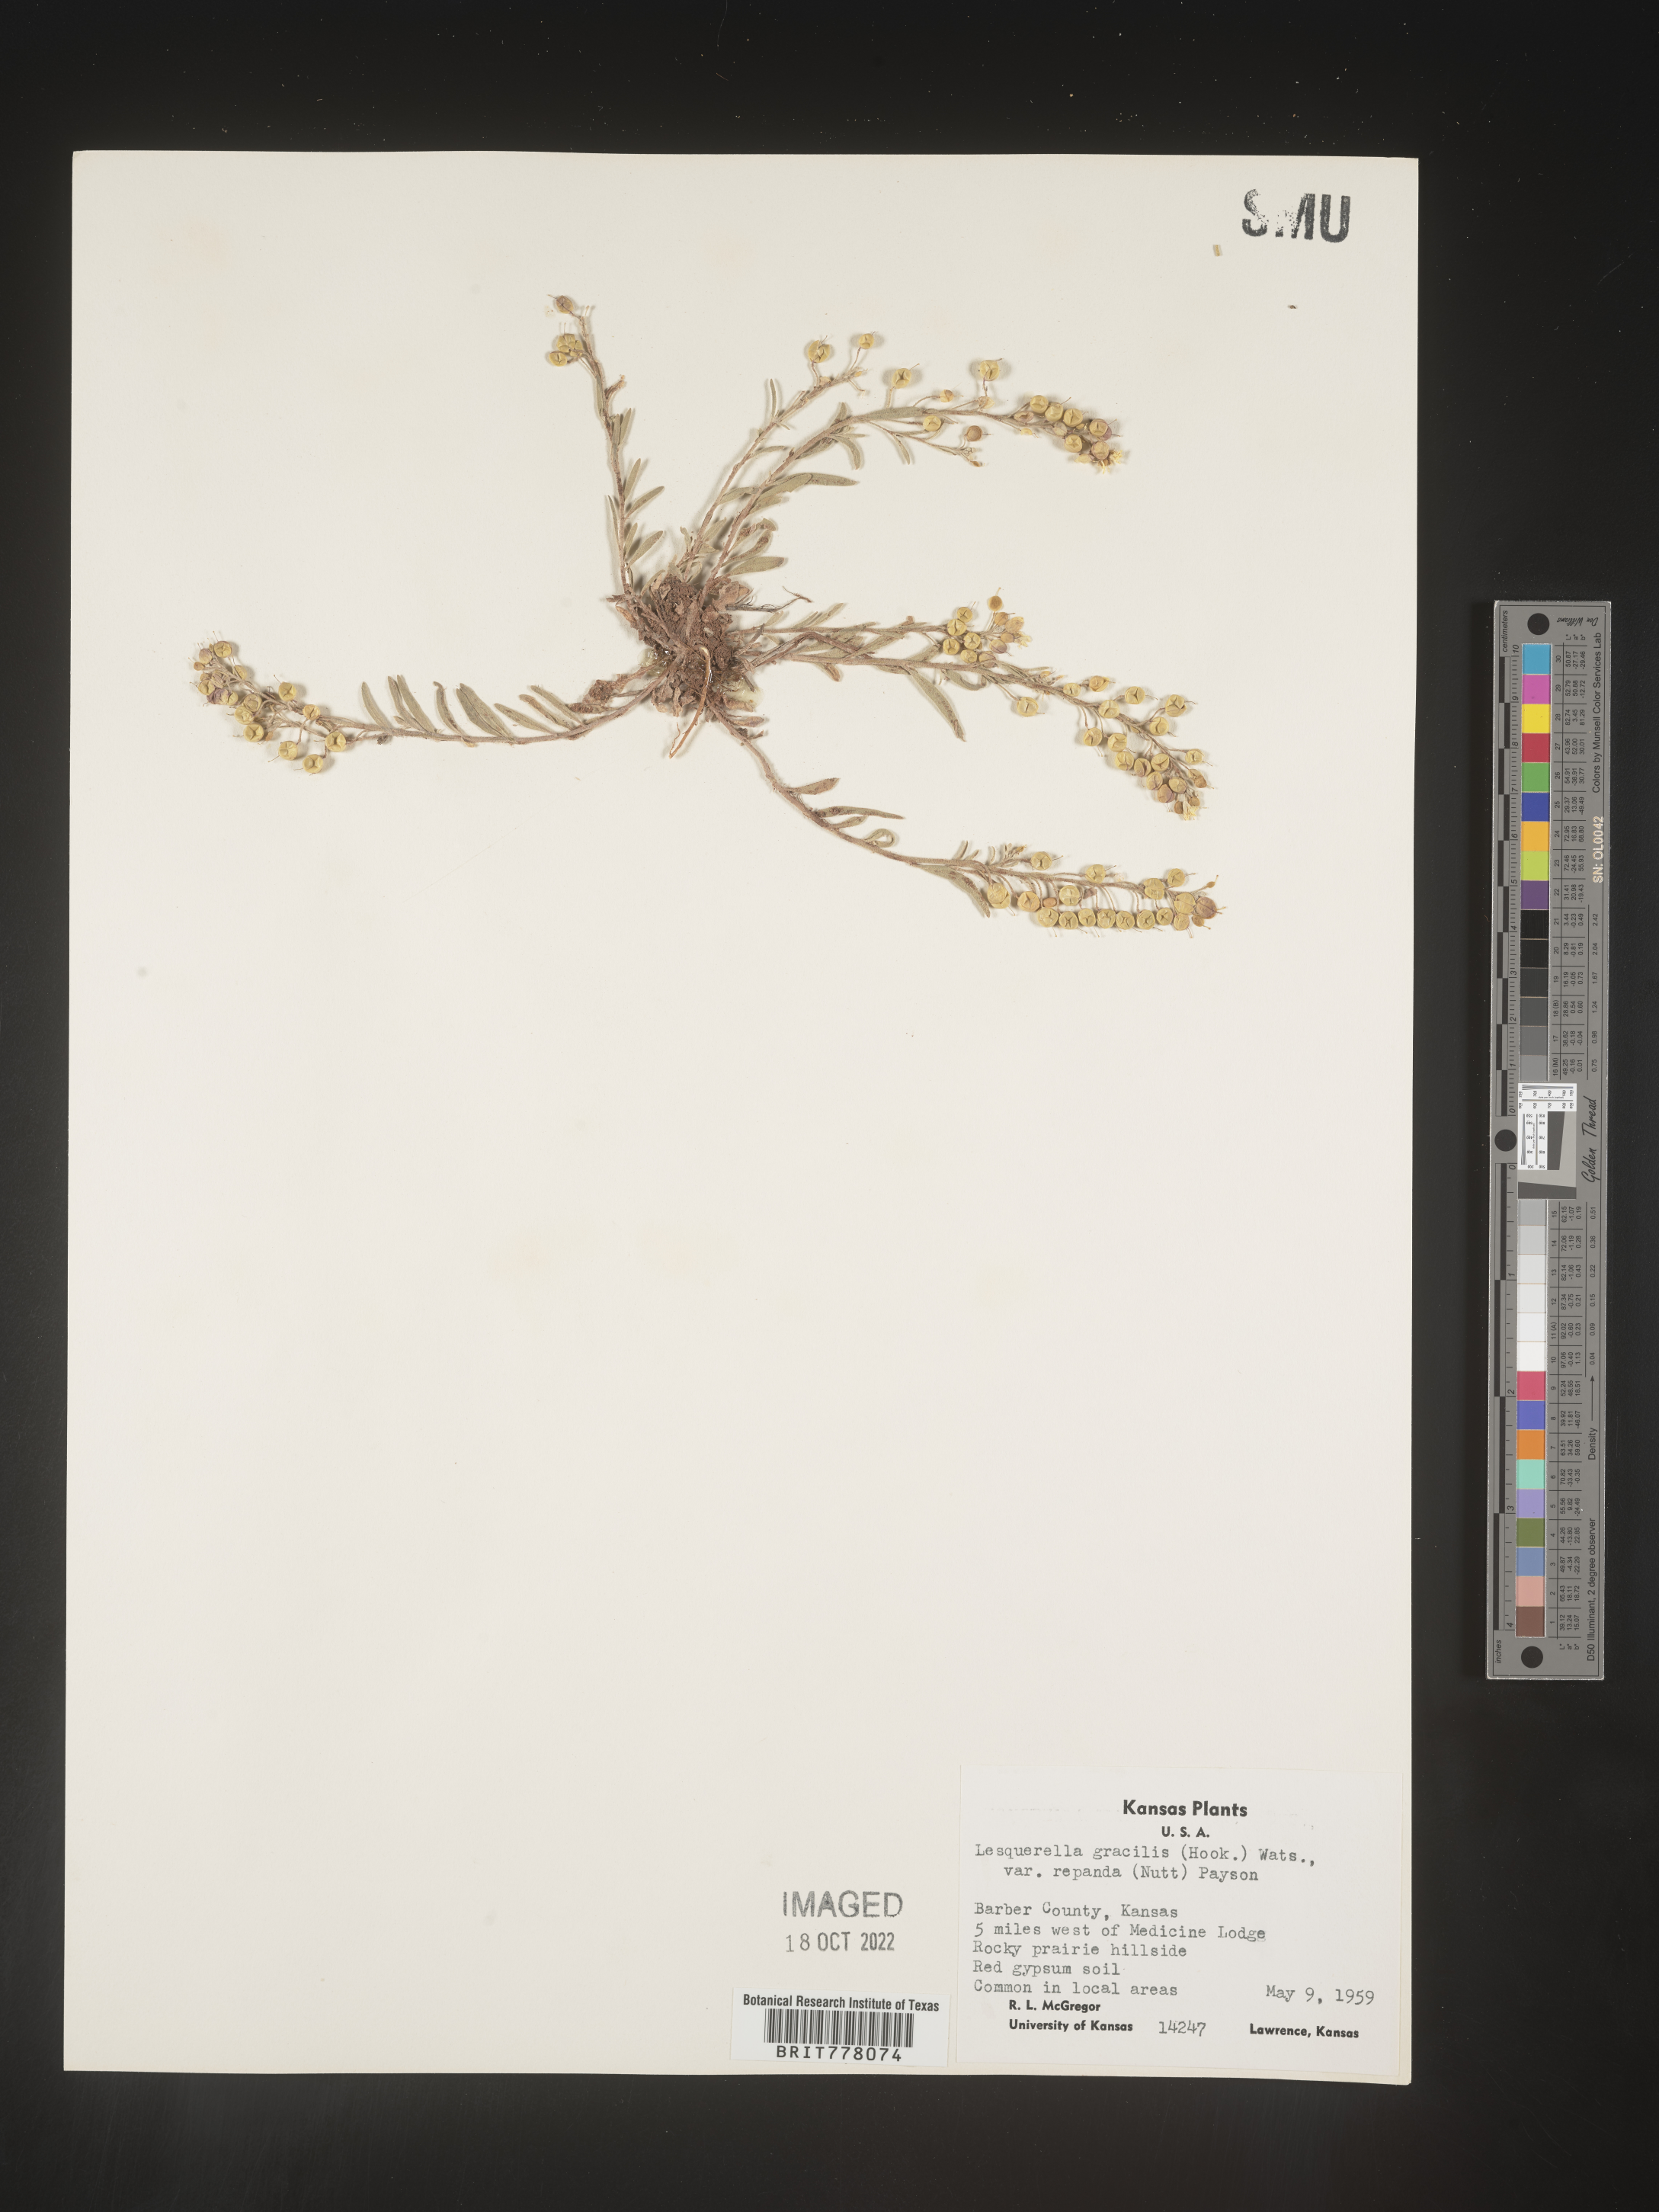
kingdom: Chromista
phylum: Cercozoa
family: Psammonobiotidae
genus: Lesquerella
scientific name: Lesquerella
